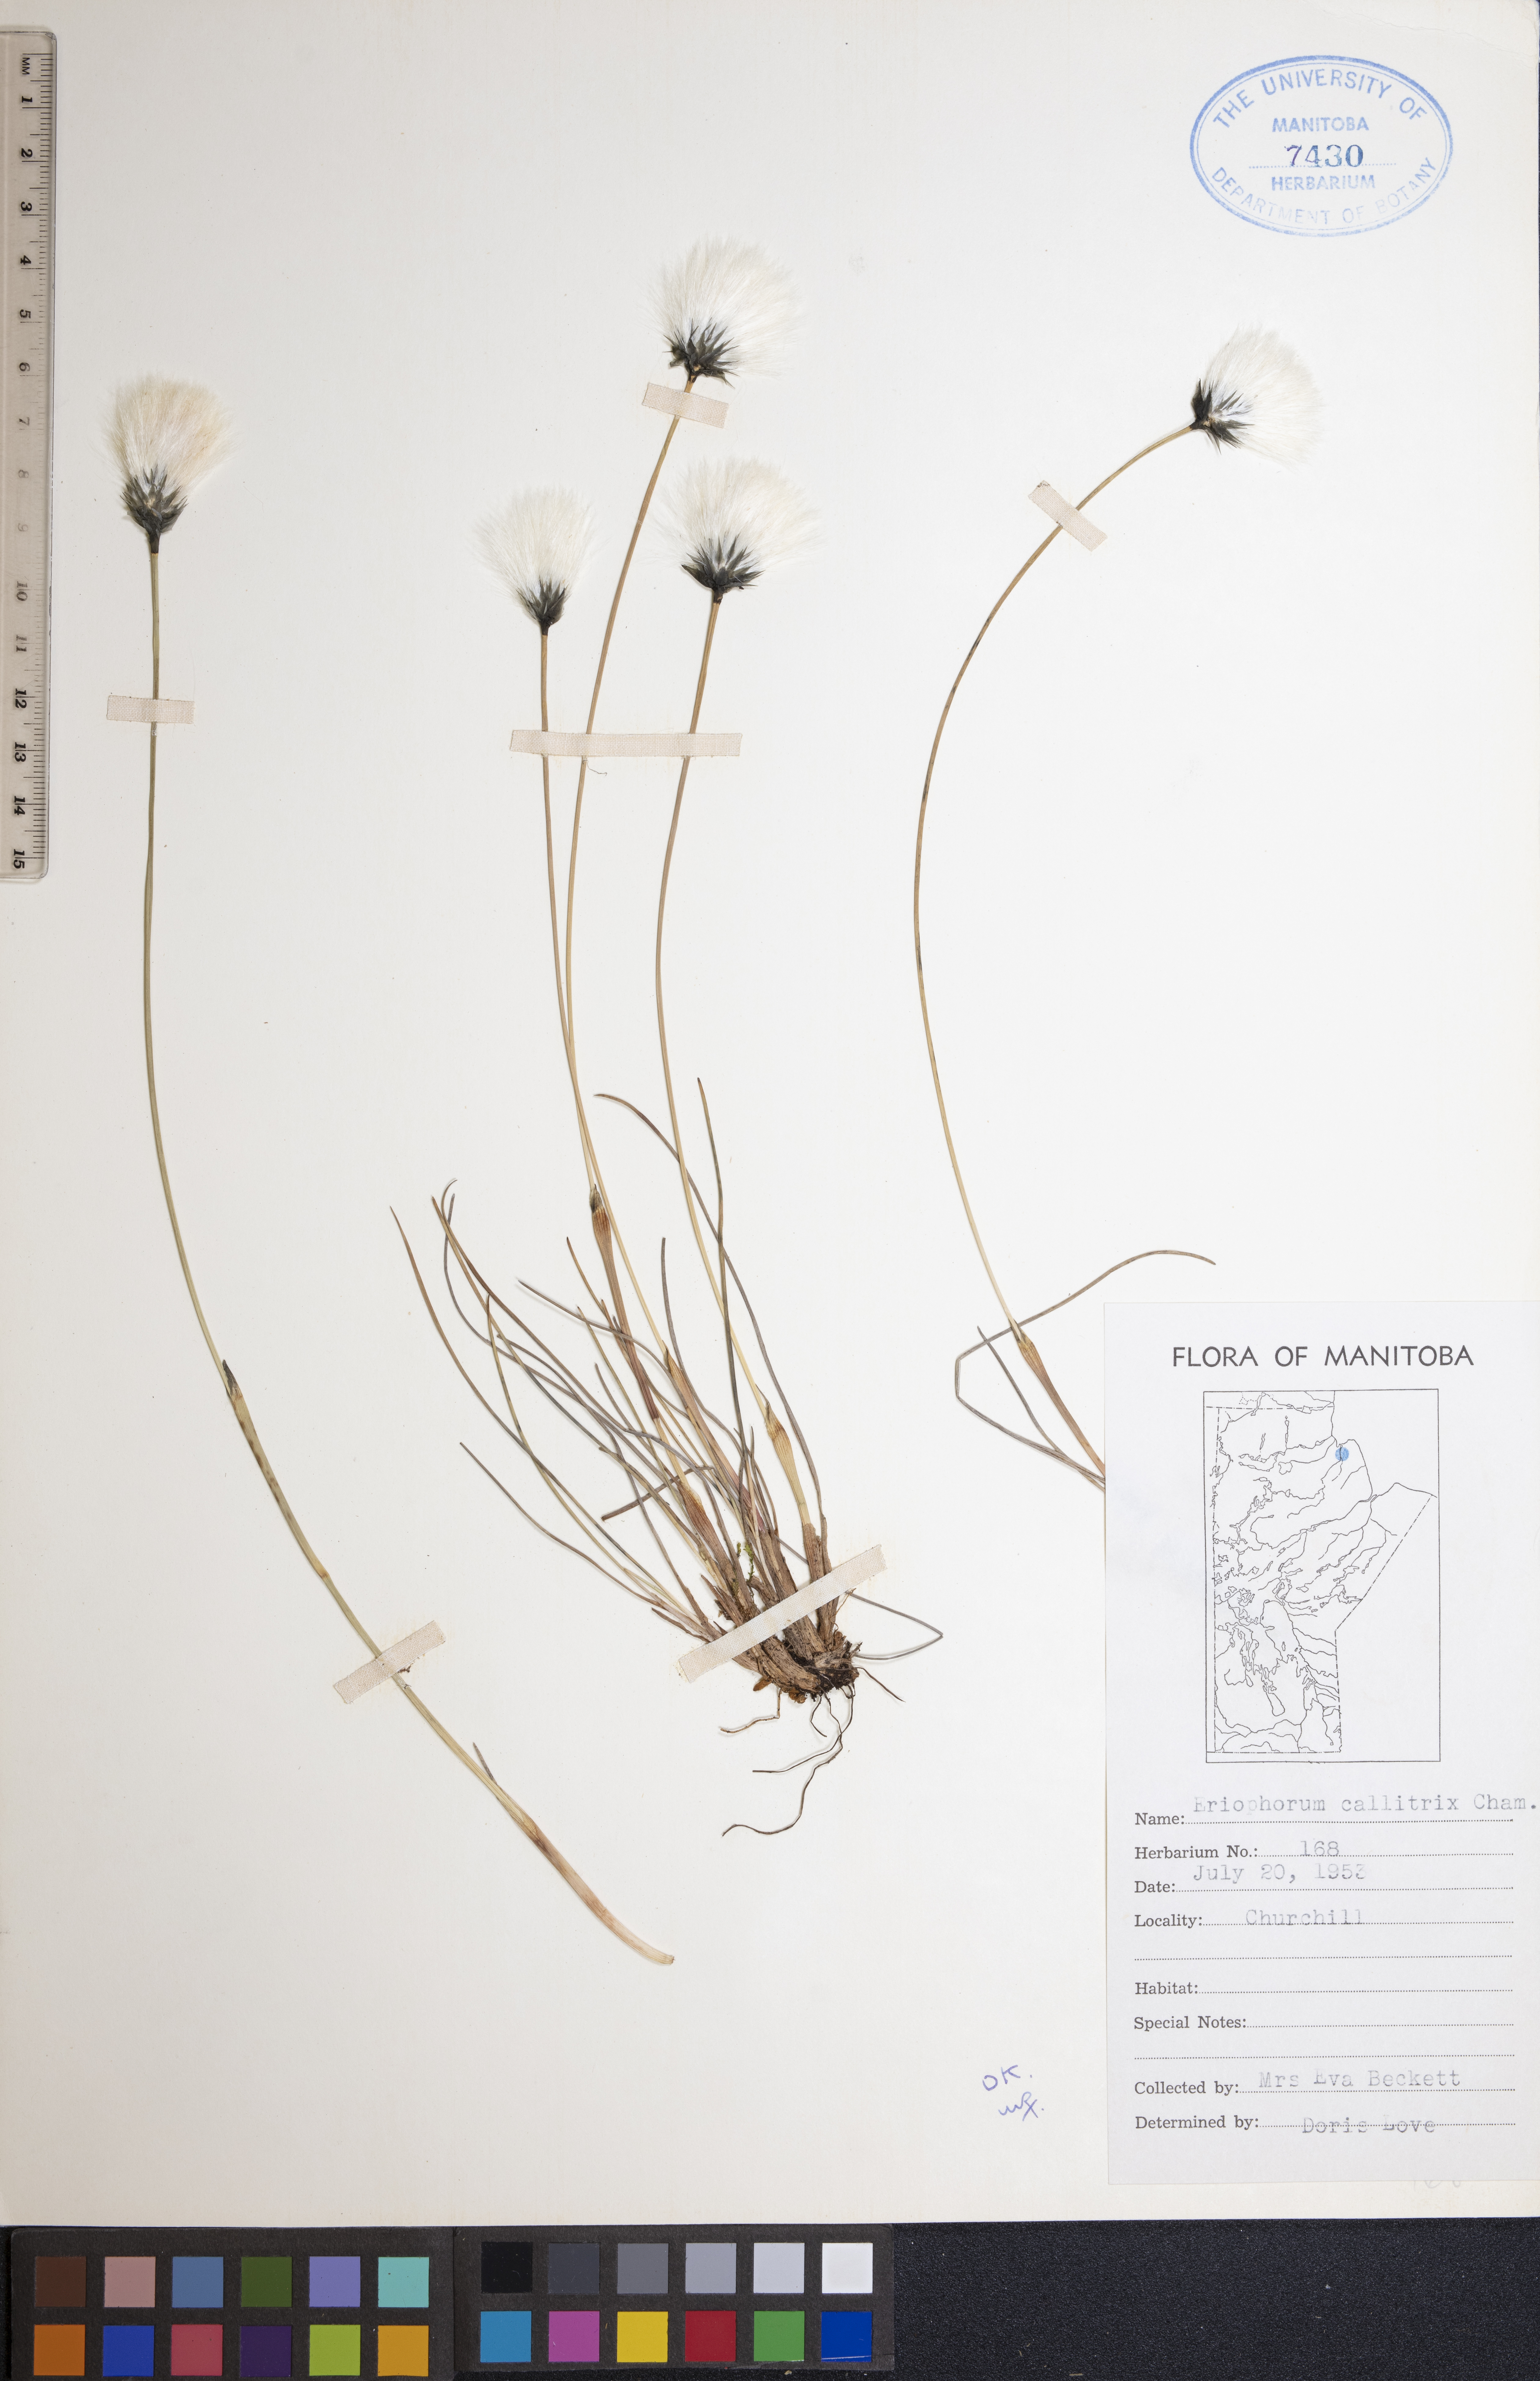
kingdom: Plantae
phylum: Tracheophyta
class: Liliopsida
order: Poales
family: Cyperaceae
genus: Eriophorum
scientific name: Eriophorum callitrix
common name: Arctic cottongrass
